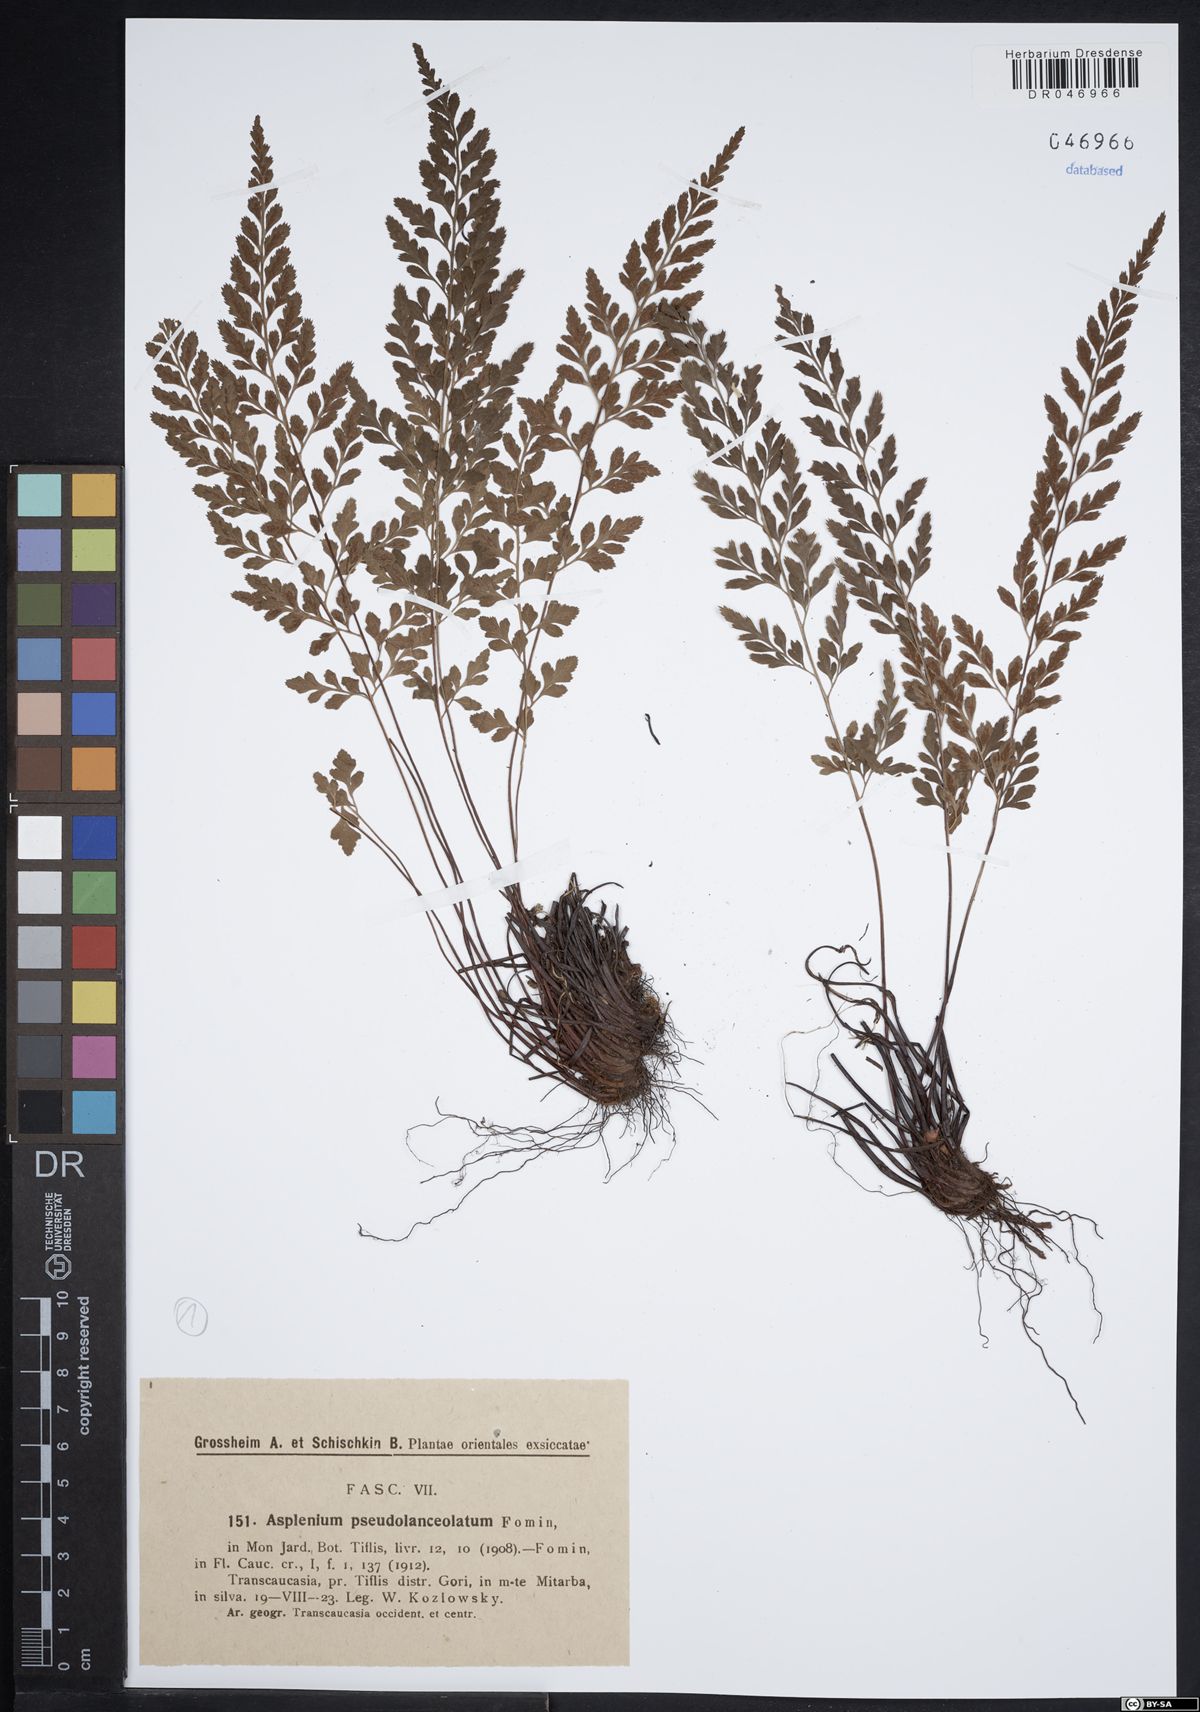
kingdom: Plantae
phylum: Tracheophyta
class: Polypodiopsida
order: Polypodiales
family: Aspleniaceae
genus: Asplenium
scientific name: Asplenium adiantum-nigrum
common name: Black spleenwort
